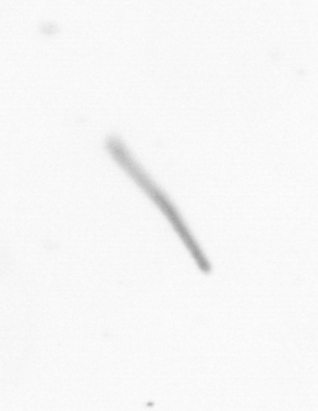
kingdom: Chromista
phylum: Ochrophyta
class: Bacillariophyceae
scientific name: Bacillariophyceae
